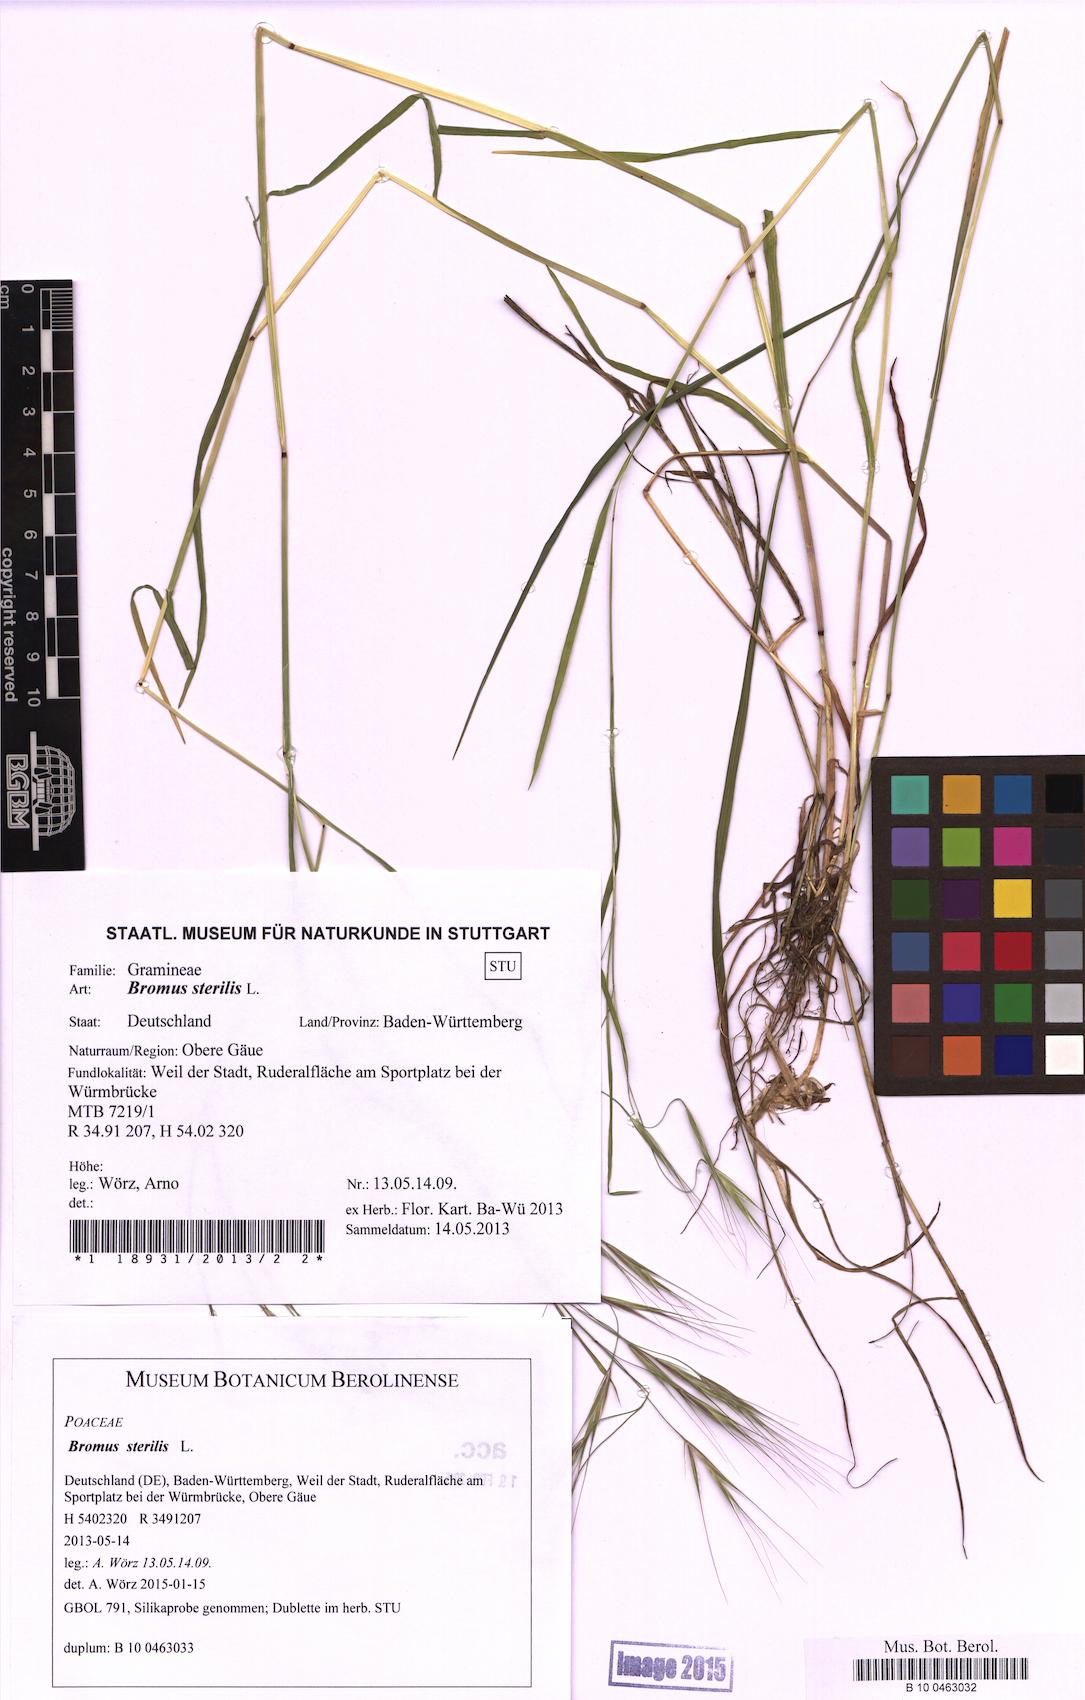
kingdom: Plantae
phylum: Tracheophyta
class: Liliopsida
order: Poales
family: Poaceae
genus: Bromus
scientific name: Bromus sterilis
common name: Poverty brome
